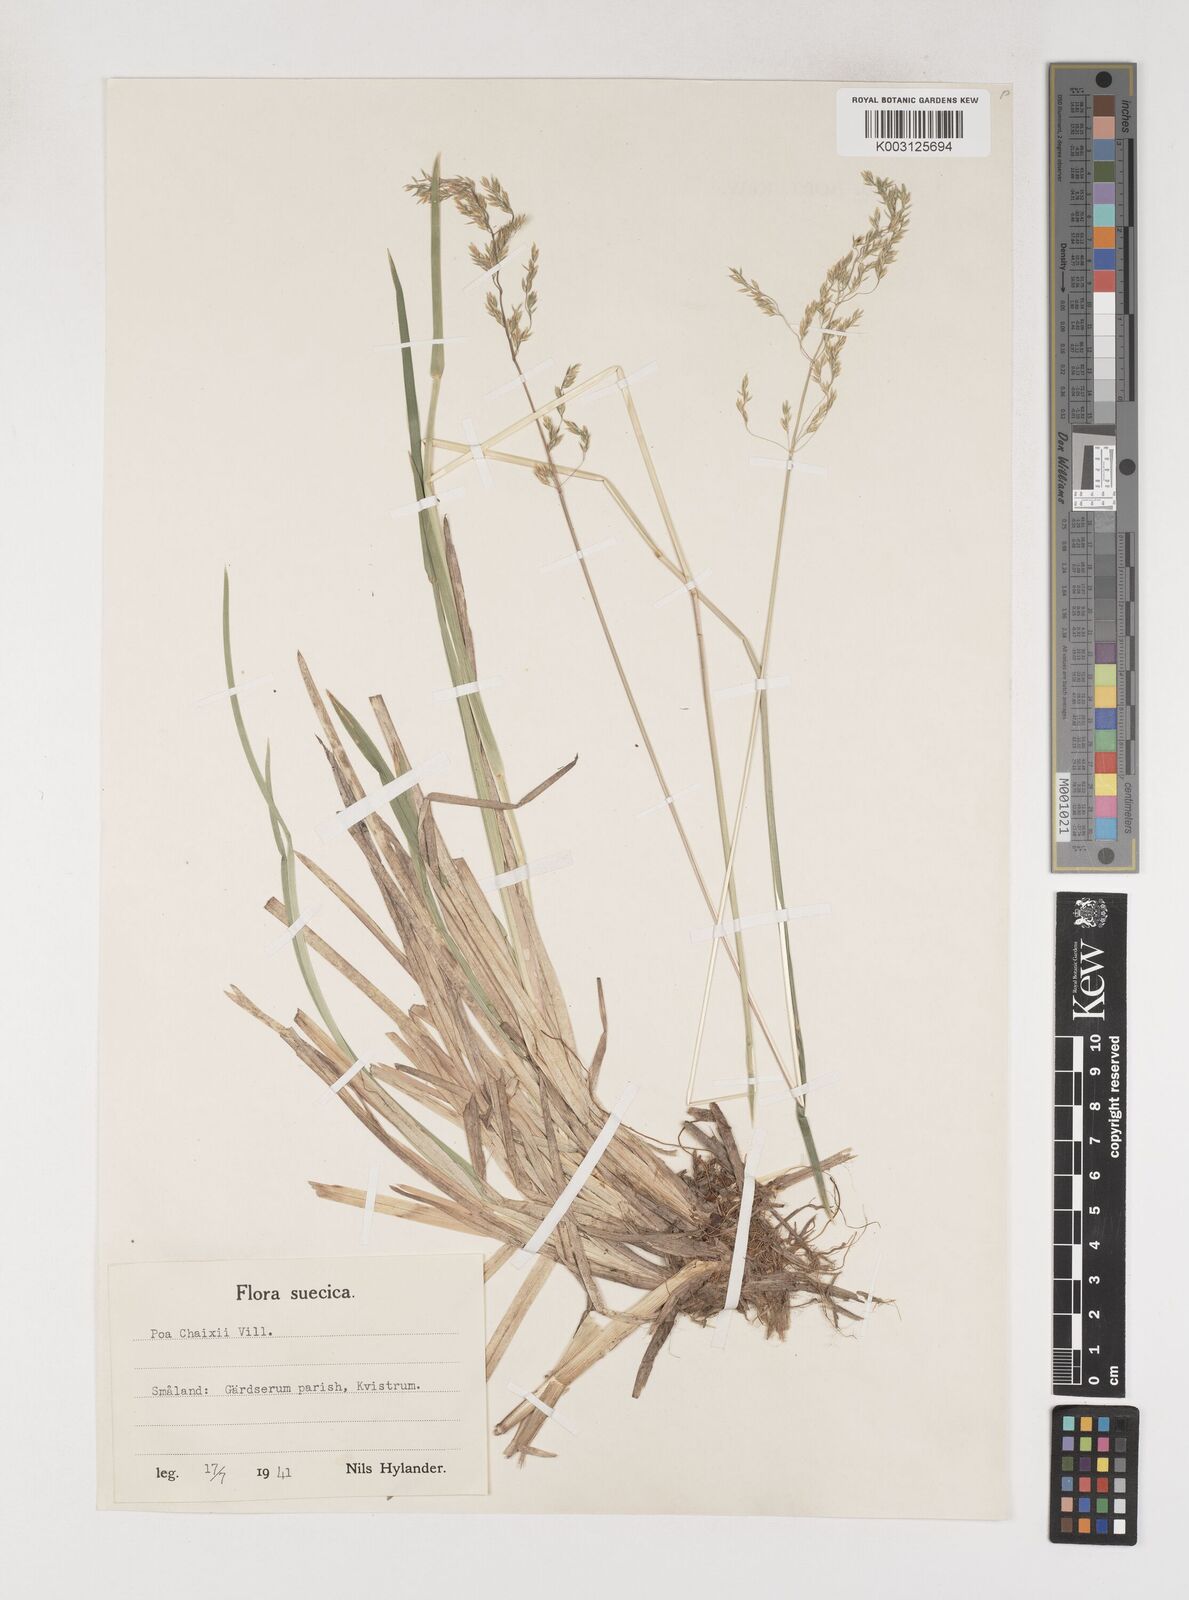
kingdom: Plantae
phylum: Tracheophyta
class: Liliopsida
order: Poales
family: Poaceae
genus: Poa
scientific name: Poa chaixii
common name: Broad-leaved meadow-grass
